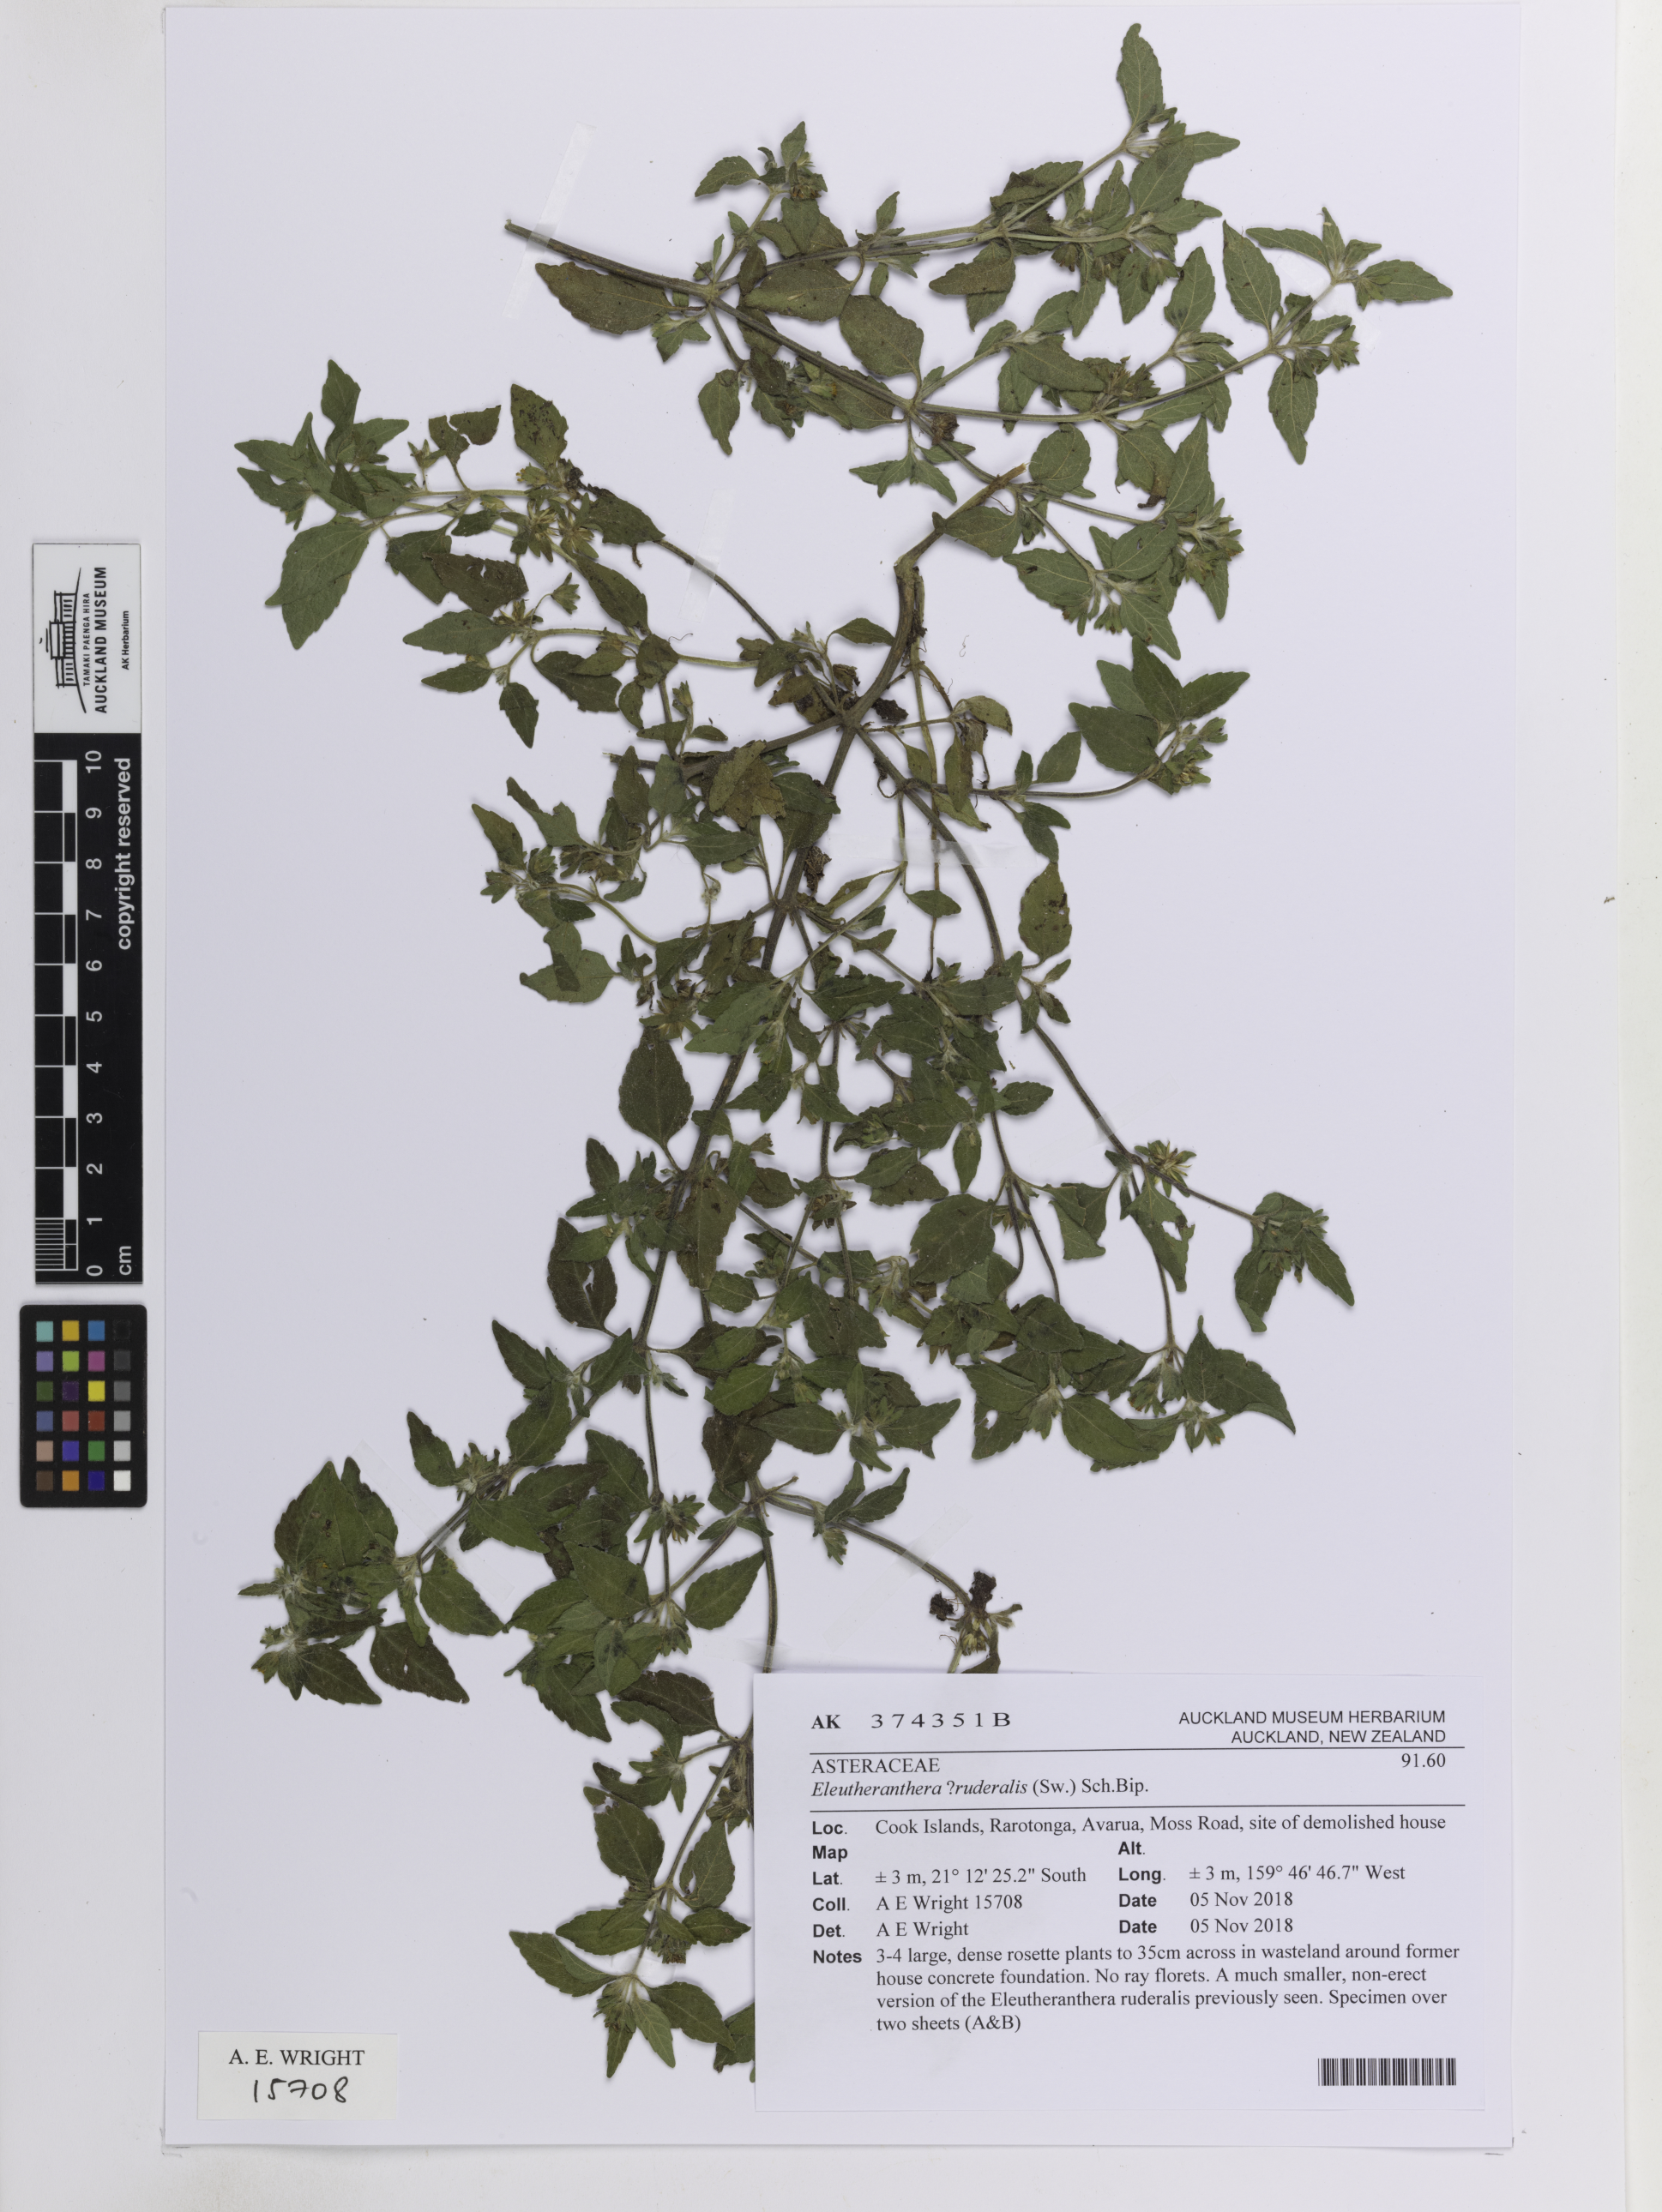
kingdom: Plantae
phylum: Tracheophyta
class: Magnoliopsida
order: Asterales
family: Asteraceae
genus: Eleutheranthera
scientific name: Eleutheranthera ruderalis
